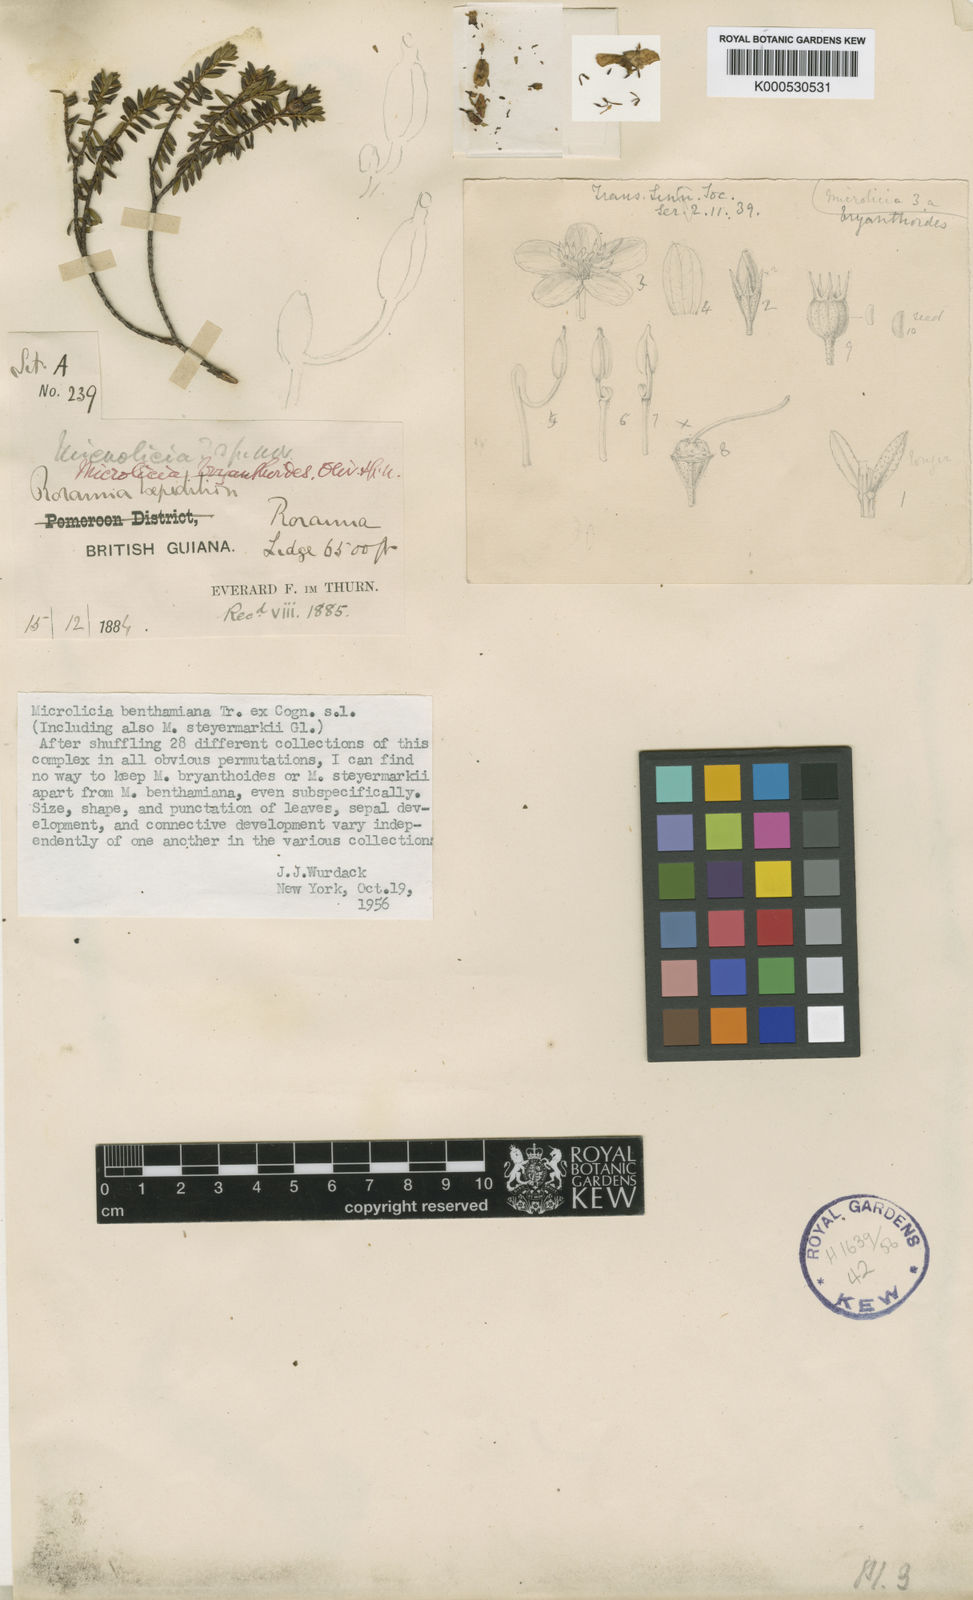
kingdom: Plantae
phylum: Tracheophyta
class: Magnoliopsida
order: Myrtales
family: Melastomataceae
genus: Microlicia
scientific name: Microlicia benthamiana
